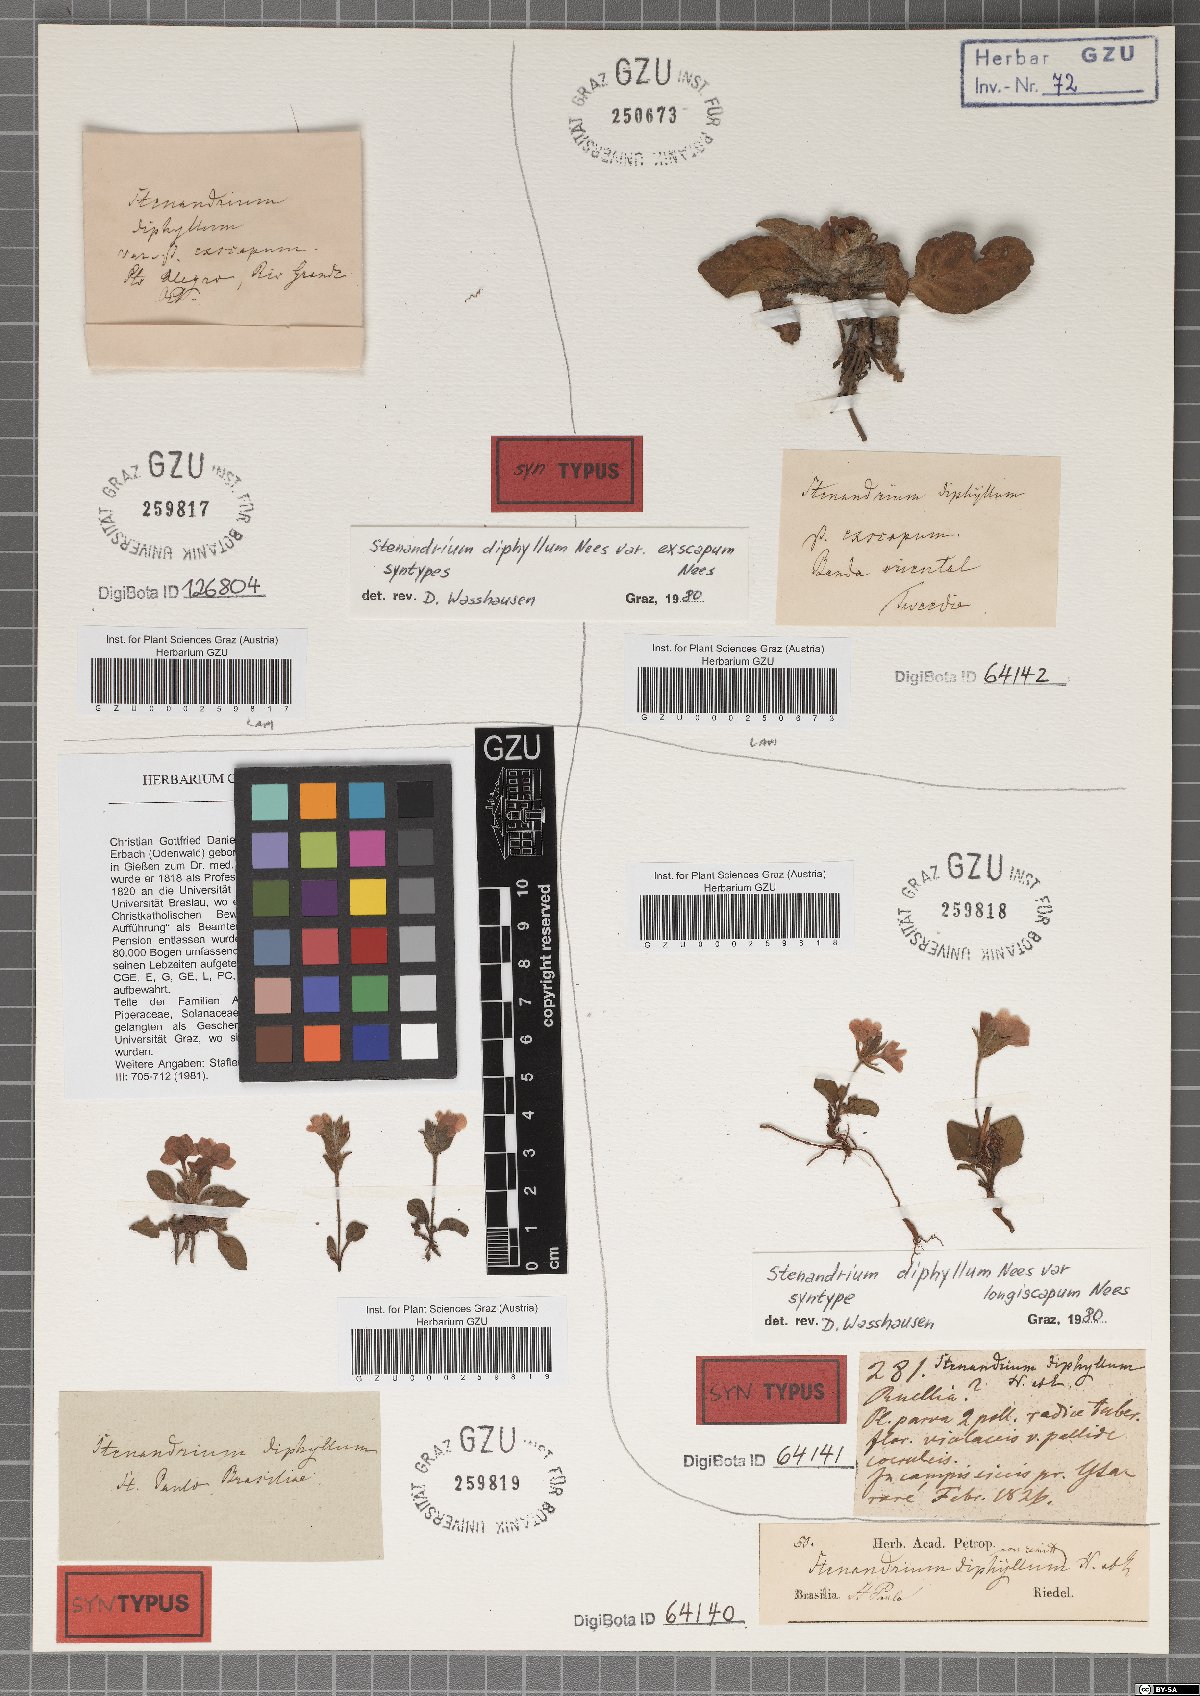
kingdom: Plantae
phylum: Tracheophyta
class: Magnoliopsida
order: Lamiales
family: Acanthaceae
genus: Stenandrium
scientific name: Stenandrium diphyllum
